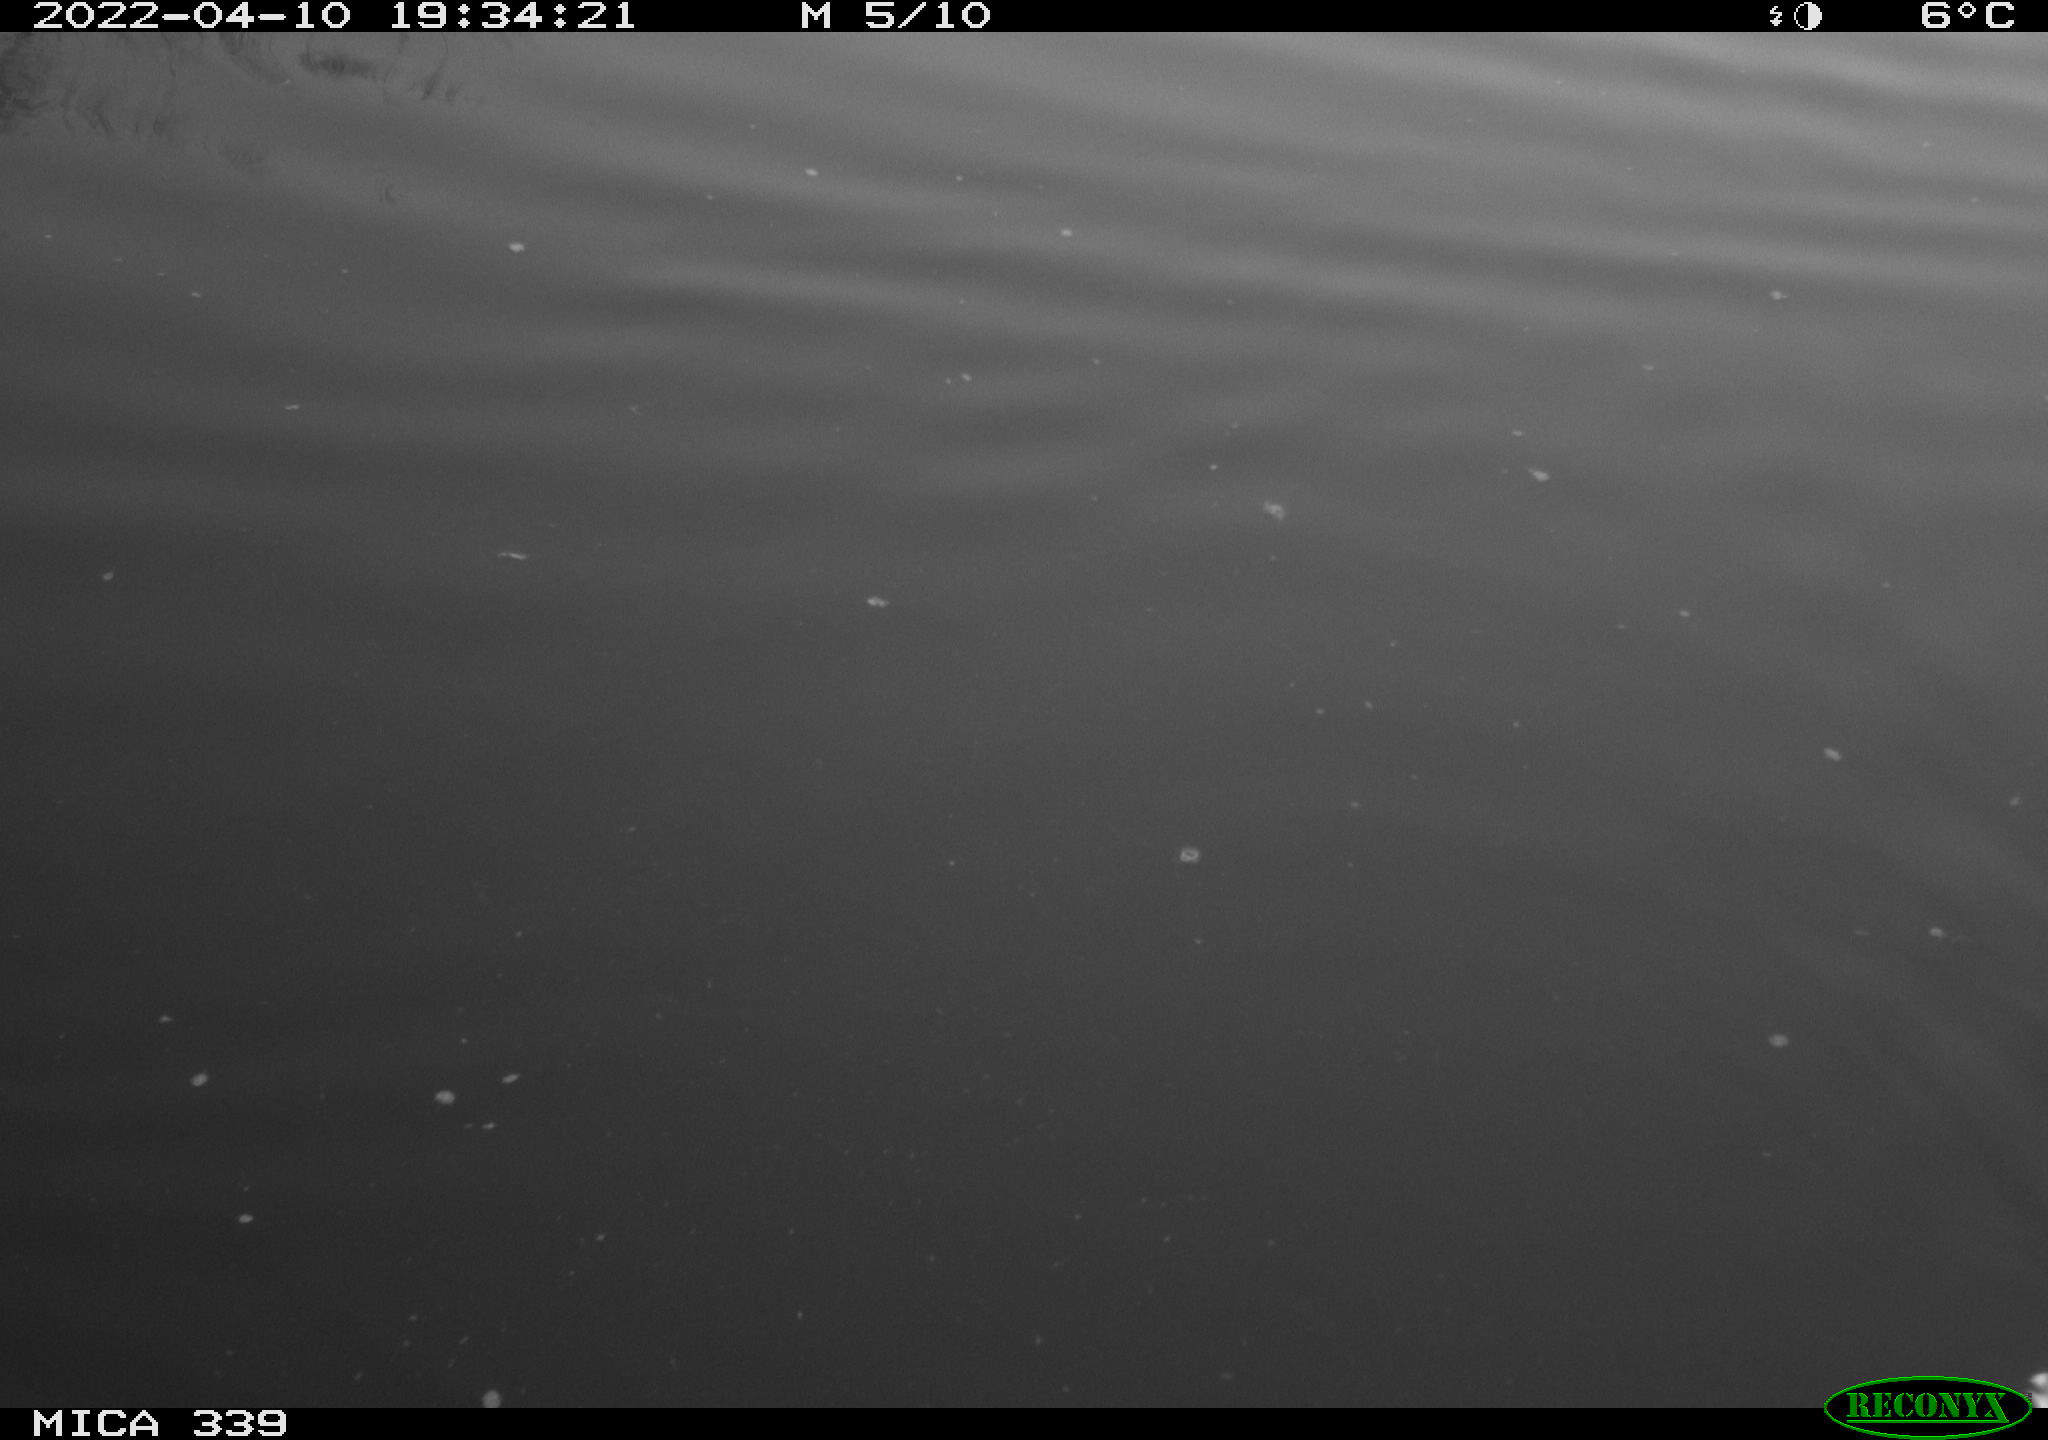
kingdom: Animalia
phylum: Chordata
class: Aves
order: Anseriformes
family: Anatidae
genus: Anas
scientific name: Anas platyrhynchos
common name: Mallard
